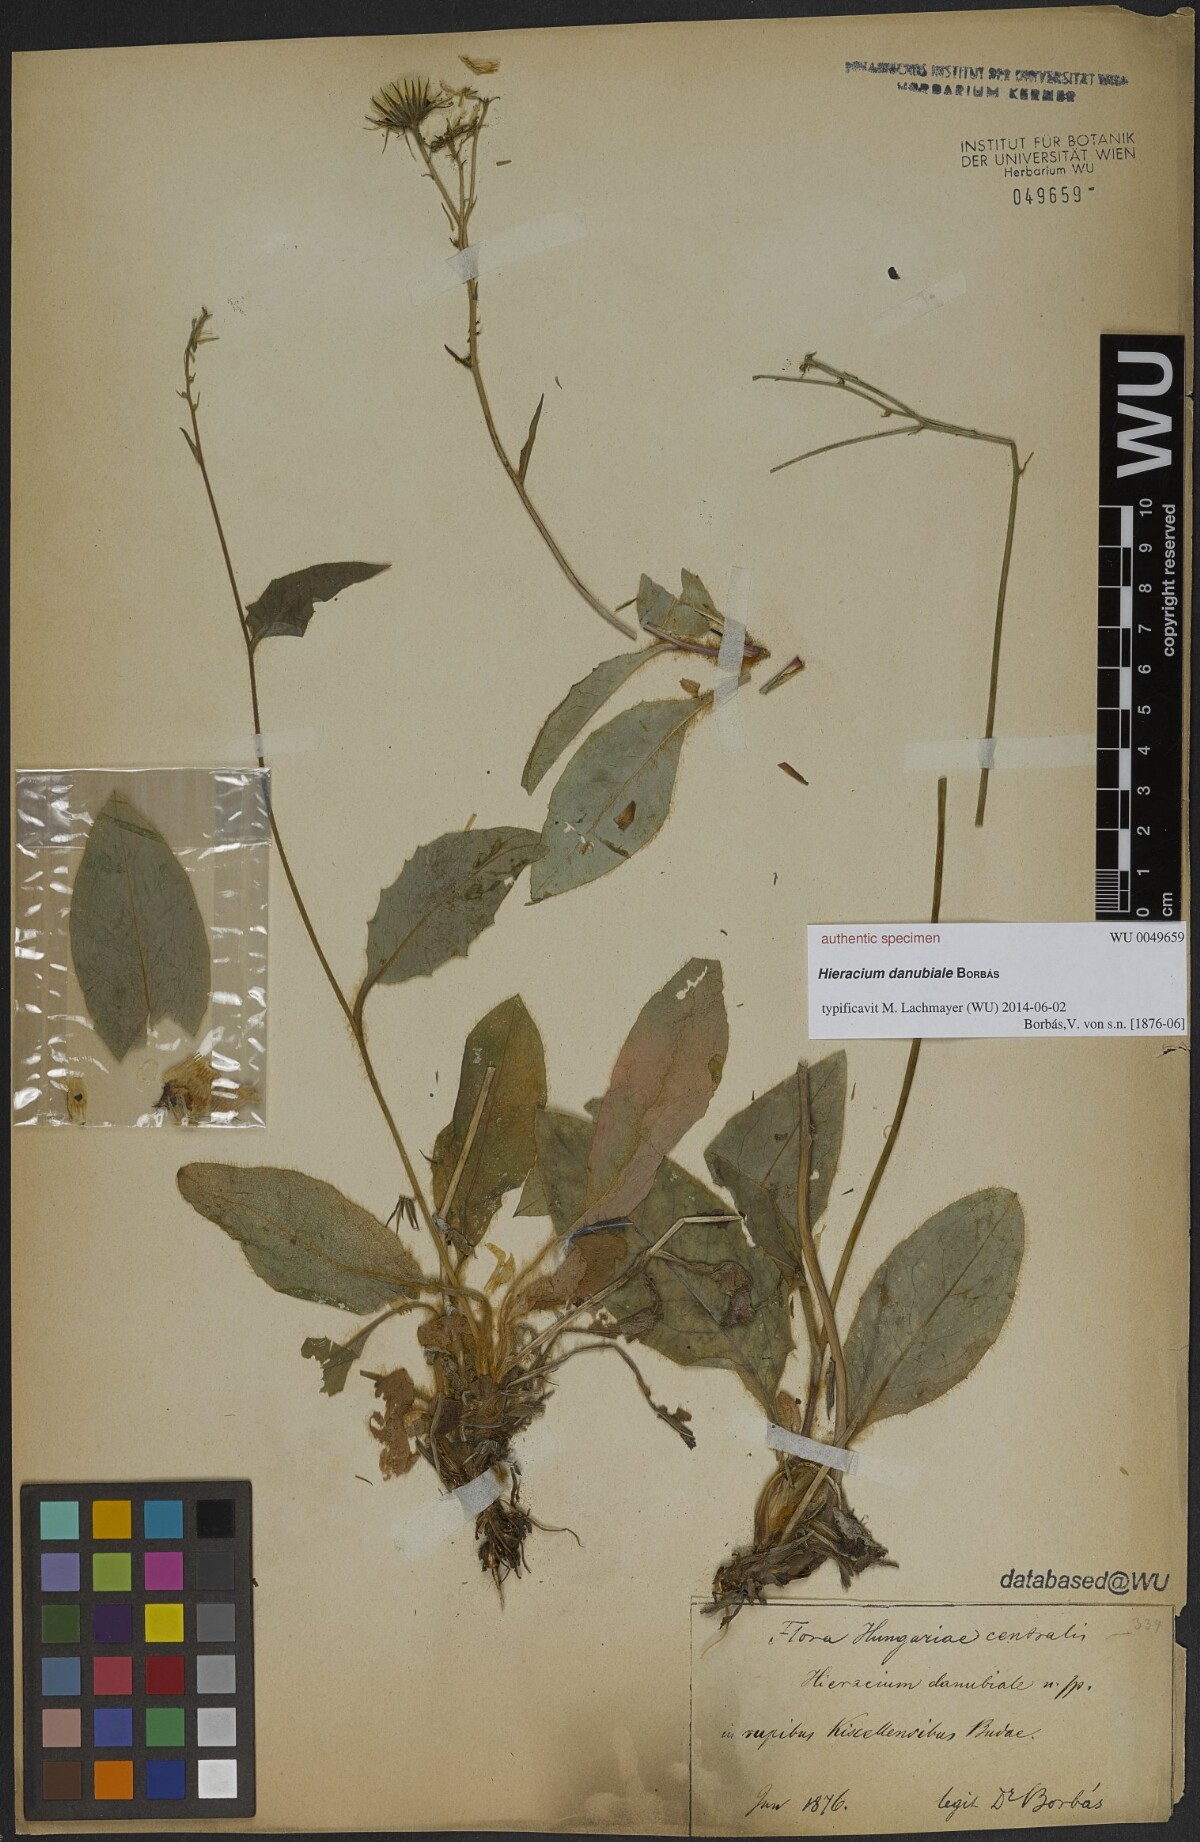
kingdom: Plantae
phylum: Tracheophyta
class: Magnoliopsida
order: Asterales
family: Asteraceae
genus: Leontodon
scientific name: Leontodon hispidus
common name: Rough hawkbit
